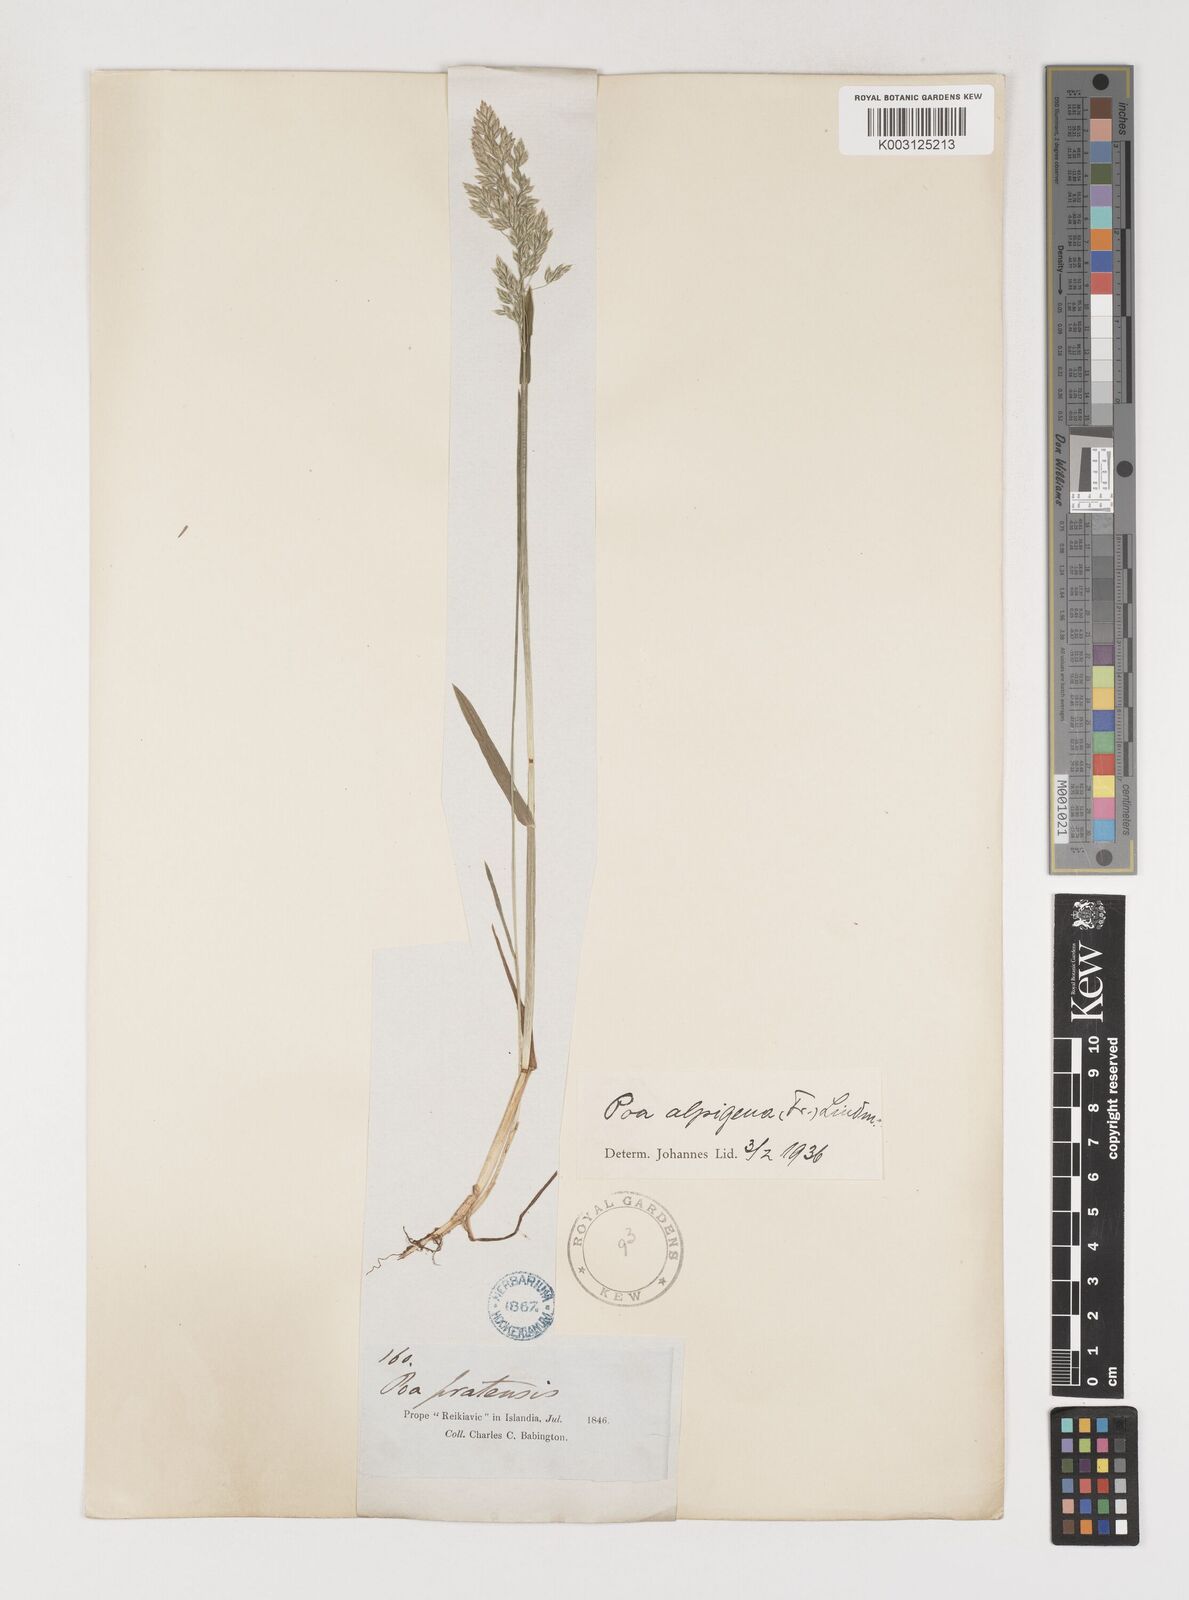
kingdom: Plantae
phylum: Tracheophyta
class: Liliopsida
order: Poales
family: Poaceae
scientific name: Poaceae
